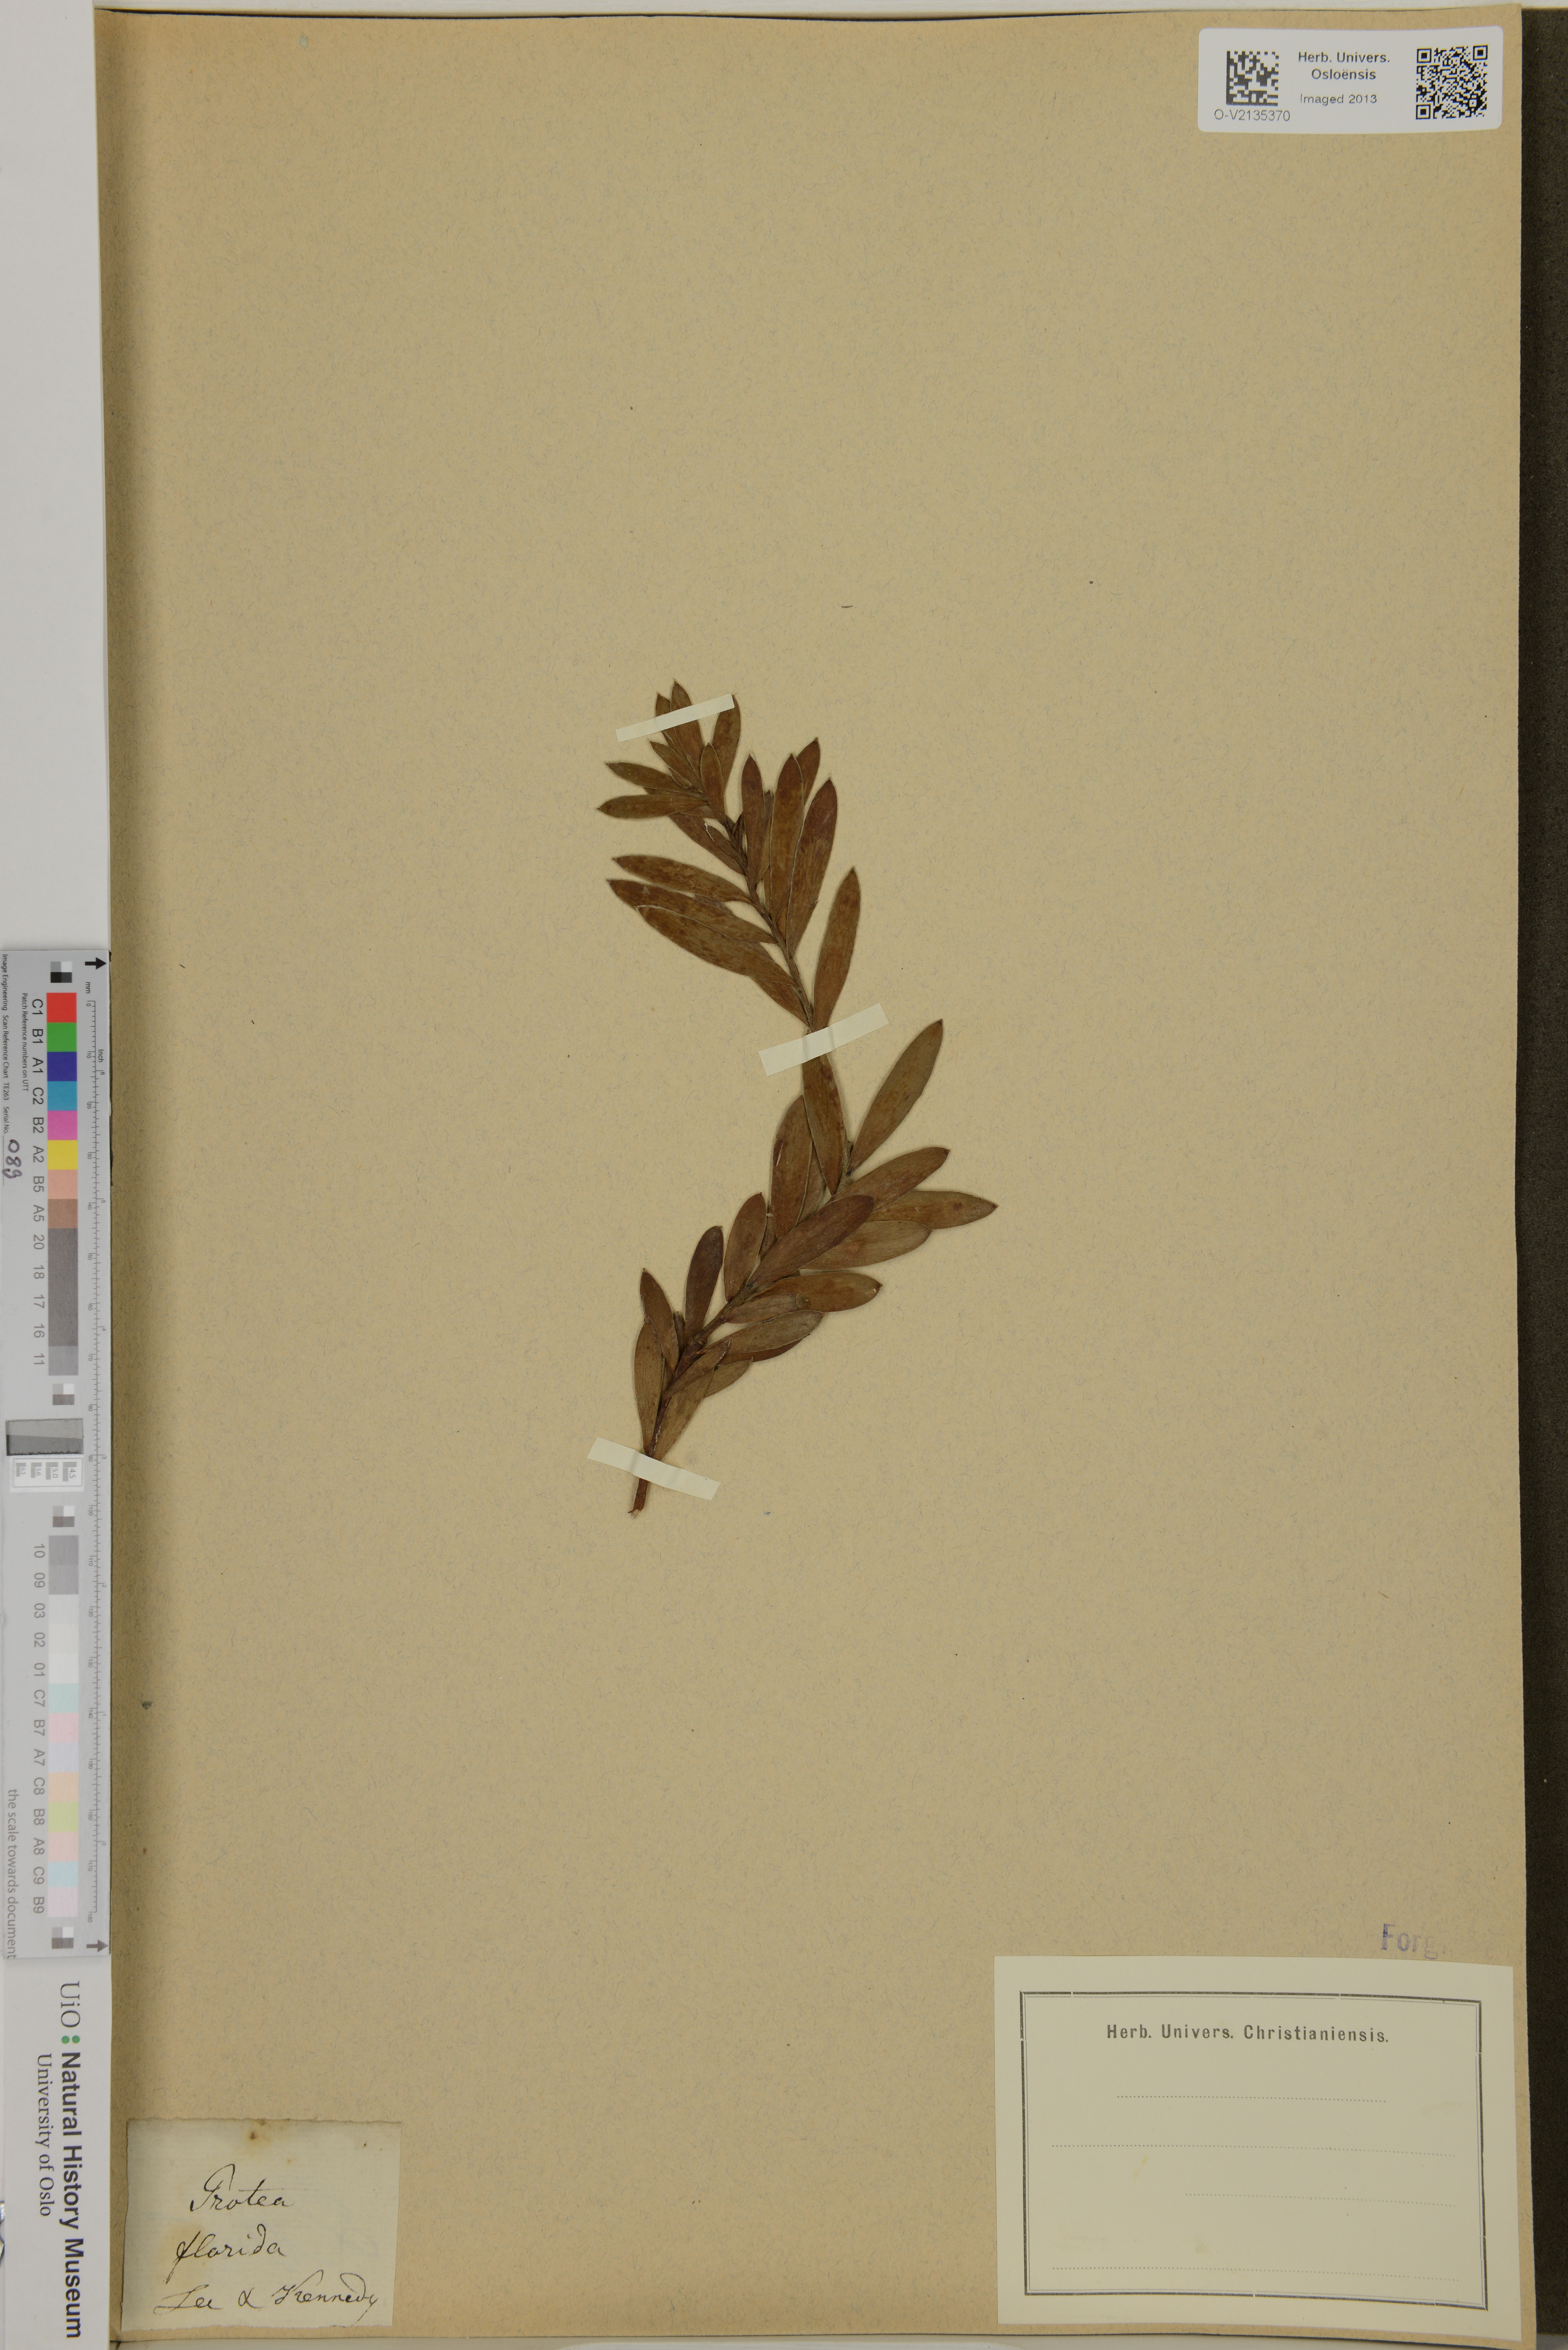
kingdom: Plantae
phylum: Tracheophyta
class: Magnoliopsida
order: Proteales
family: Proteaceae
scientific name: Proteaceae
